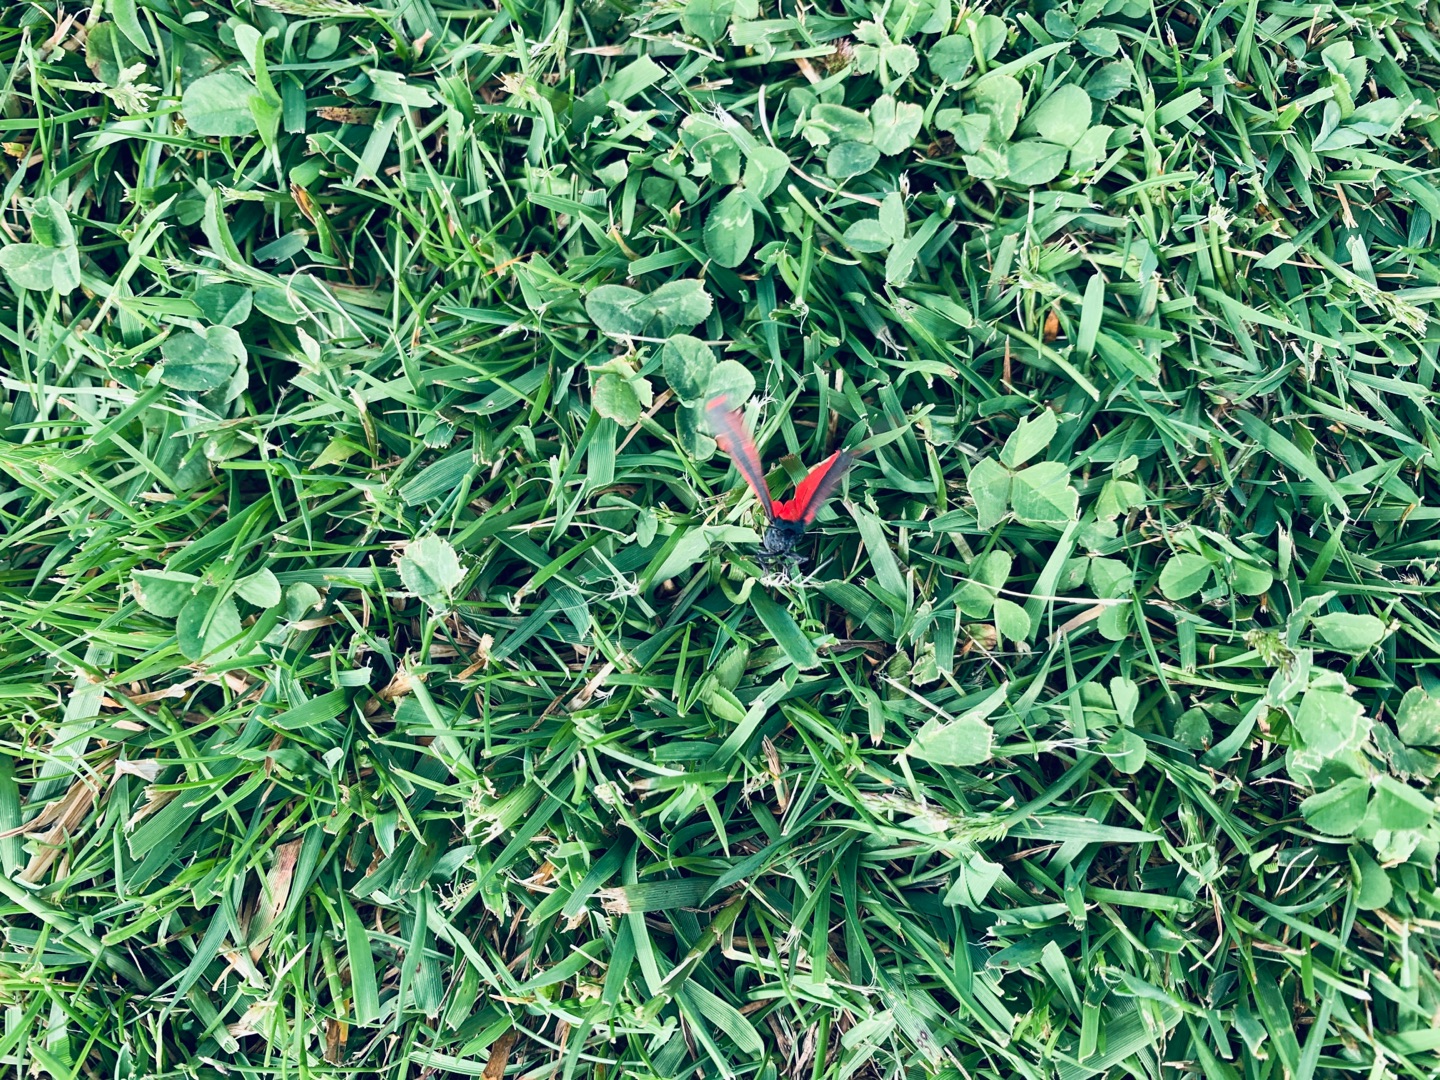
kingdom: Animalia
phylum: Arthropoda
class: Insecta
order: Lepidoptera
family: Erebidae
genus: Tyria
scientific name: Tyria jacobaeae
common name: Blodplet
